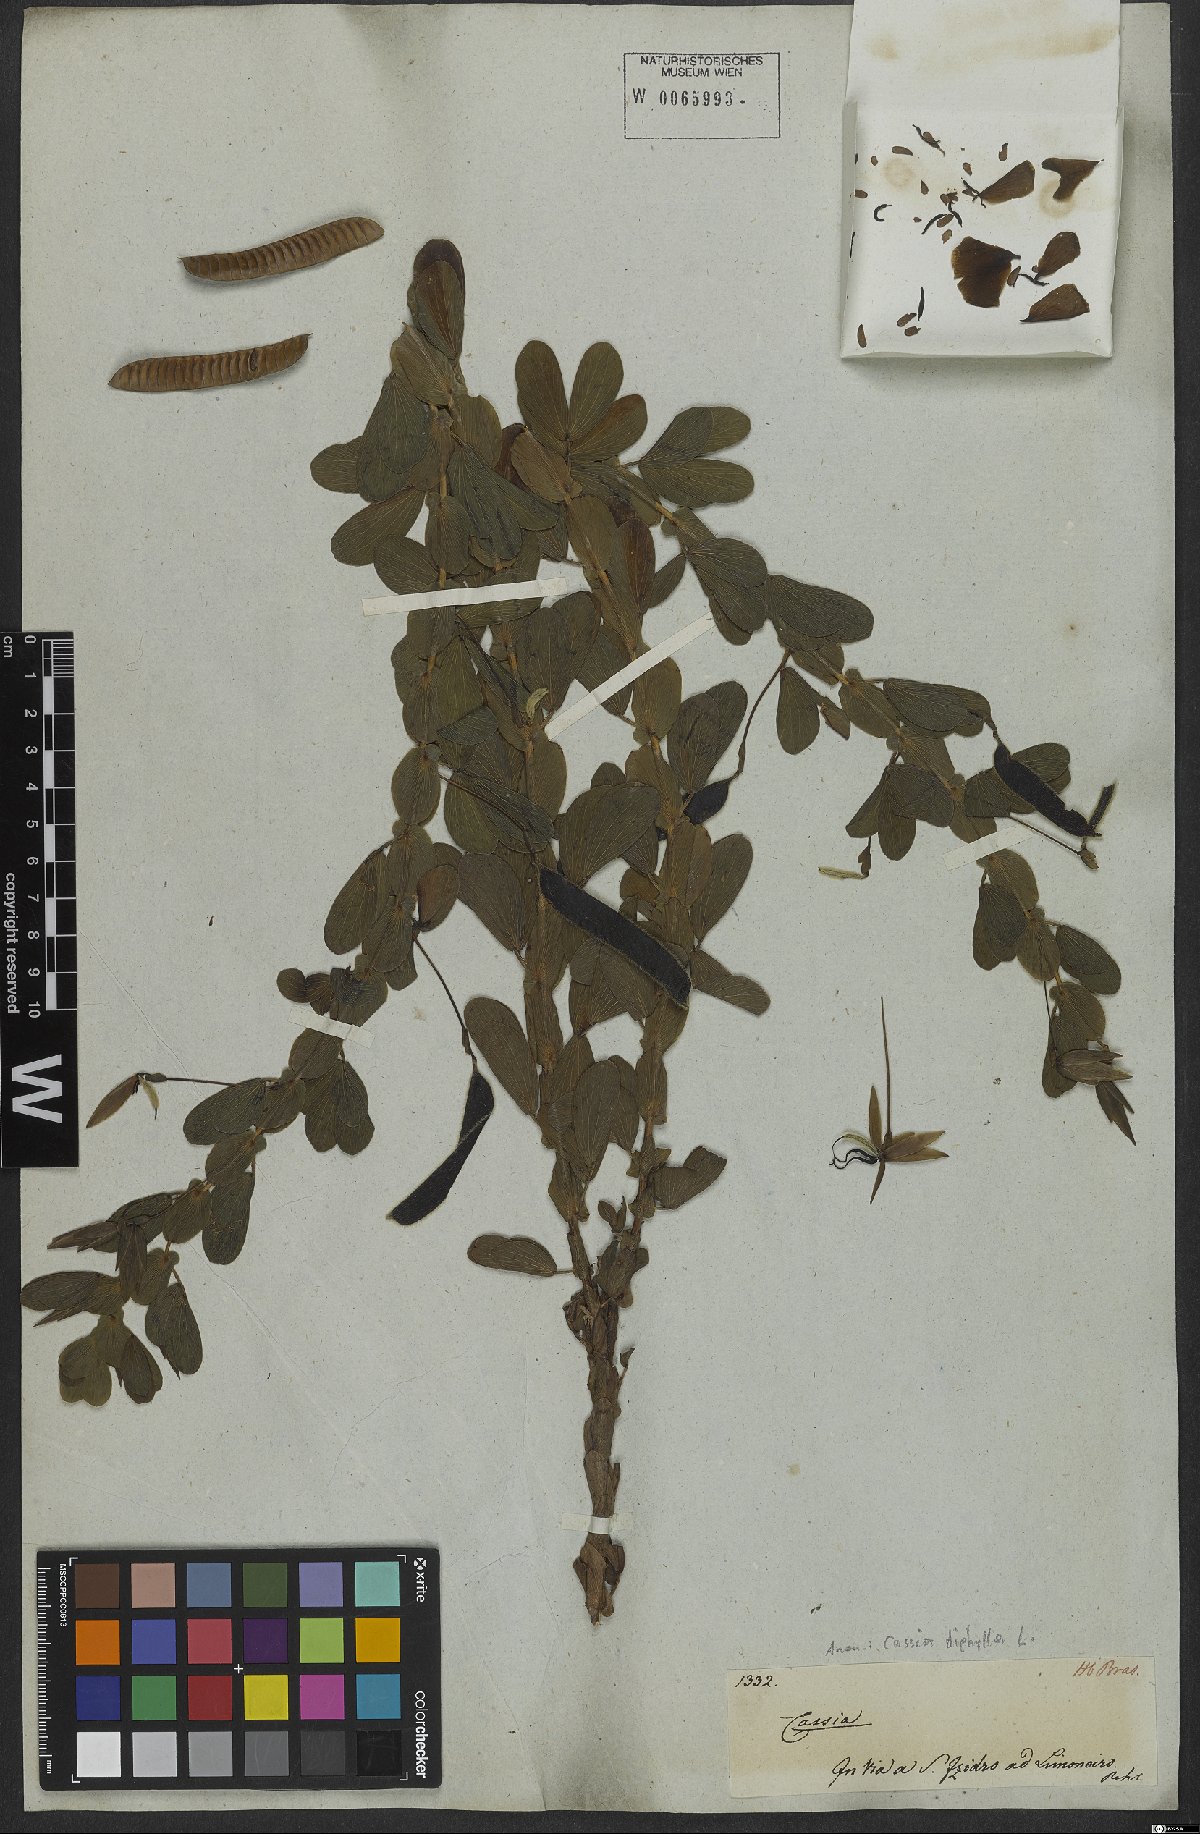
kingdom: Plantae
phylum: Tracheophyta
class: Magnoliopsida
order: Fabales
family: Fabaceae
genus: Chamaecrista
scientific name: Chamaecrista diphylla
